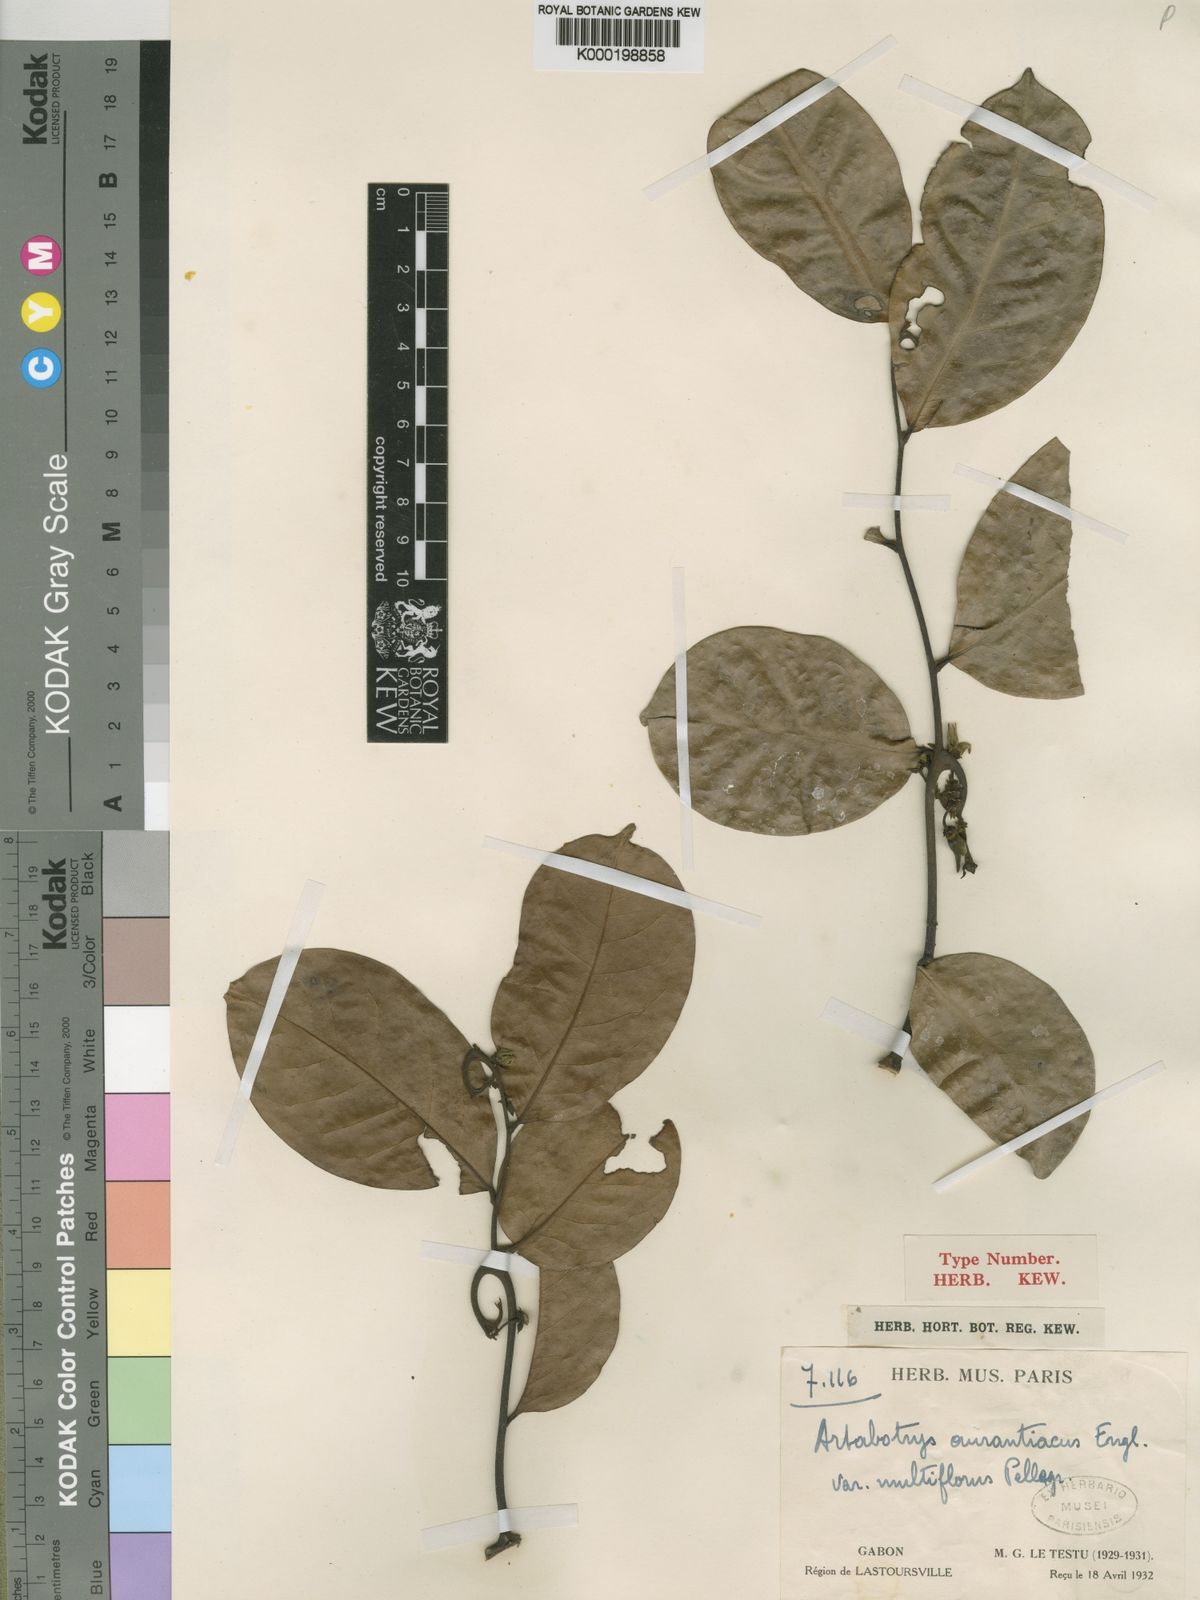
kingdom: Plantae
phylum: Tracheophyta
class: Magnoliopsida
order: Magnoliales
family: Annonaceae
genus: Artabotrys
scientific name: Artabotrys aurantiacus
